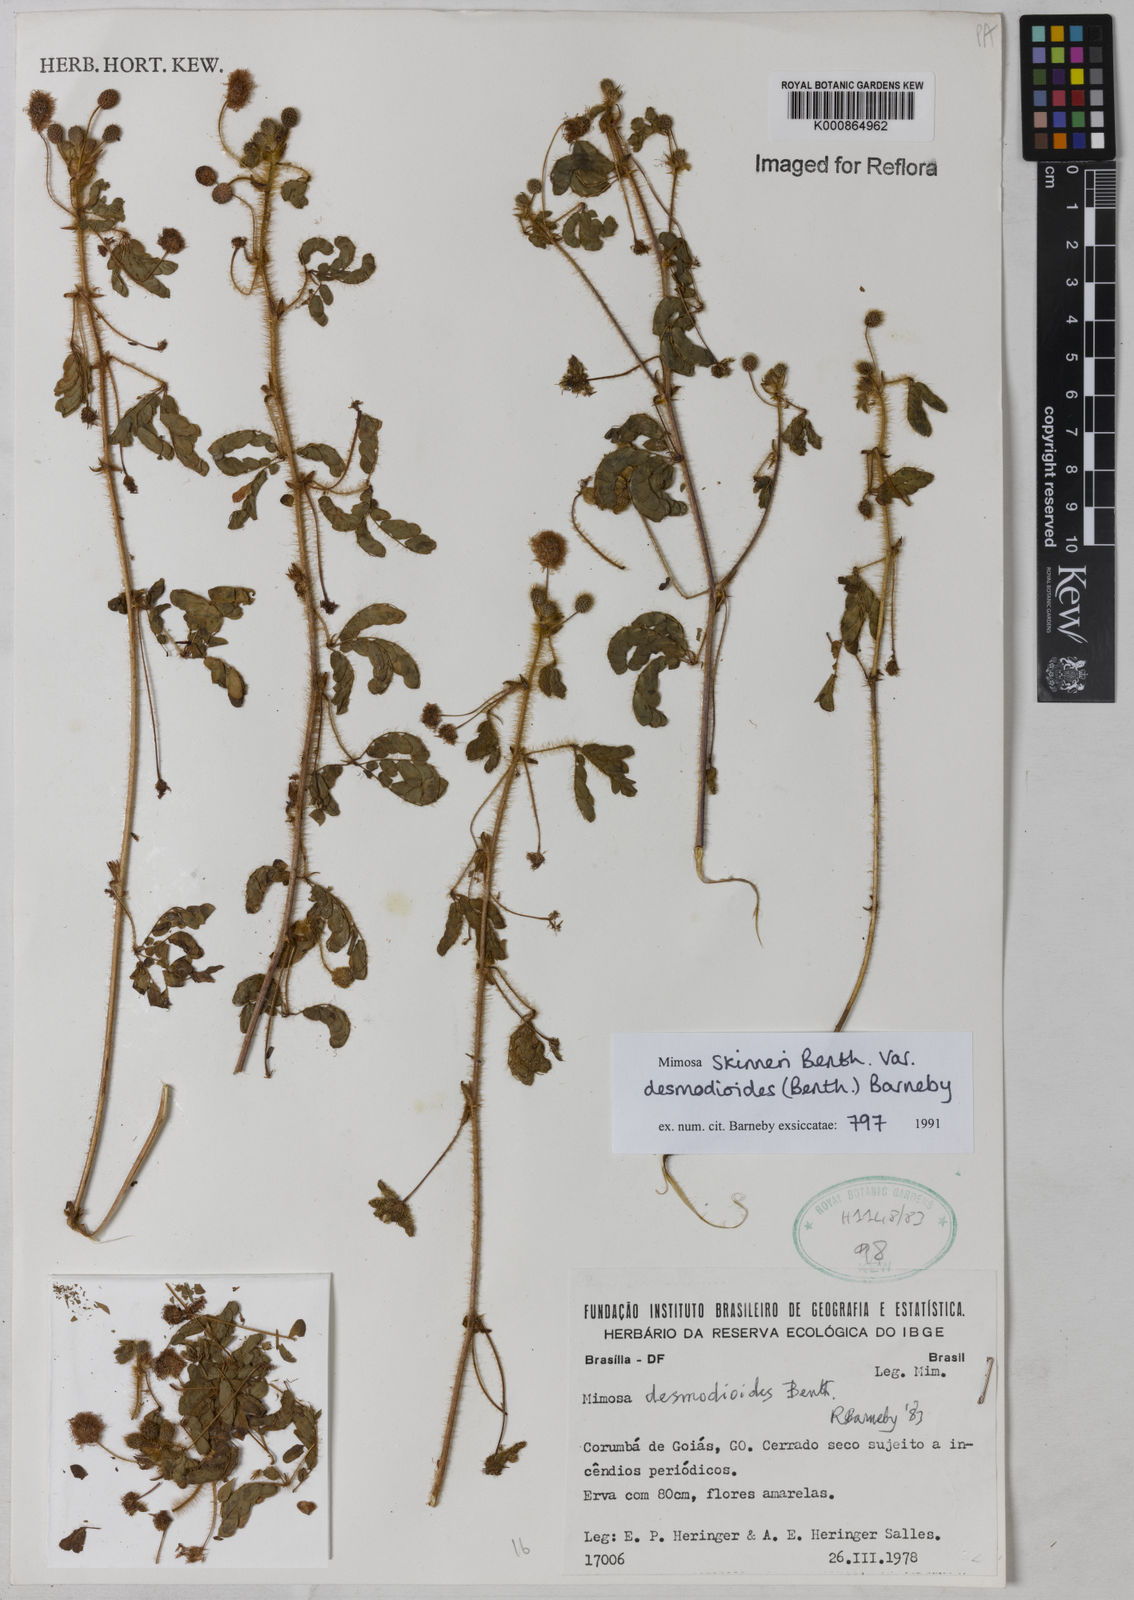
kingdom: Plantae
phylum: Tracheophyta
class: Magnoliopsida
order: Fabales
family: Fabaceae
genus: Mimosa
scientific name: Mimosa skinneri
